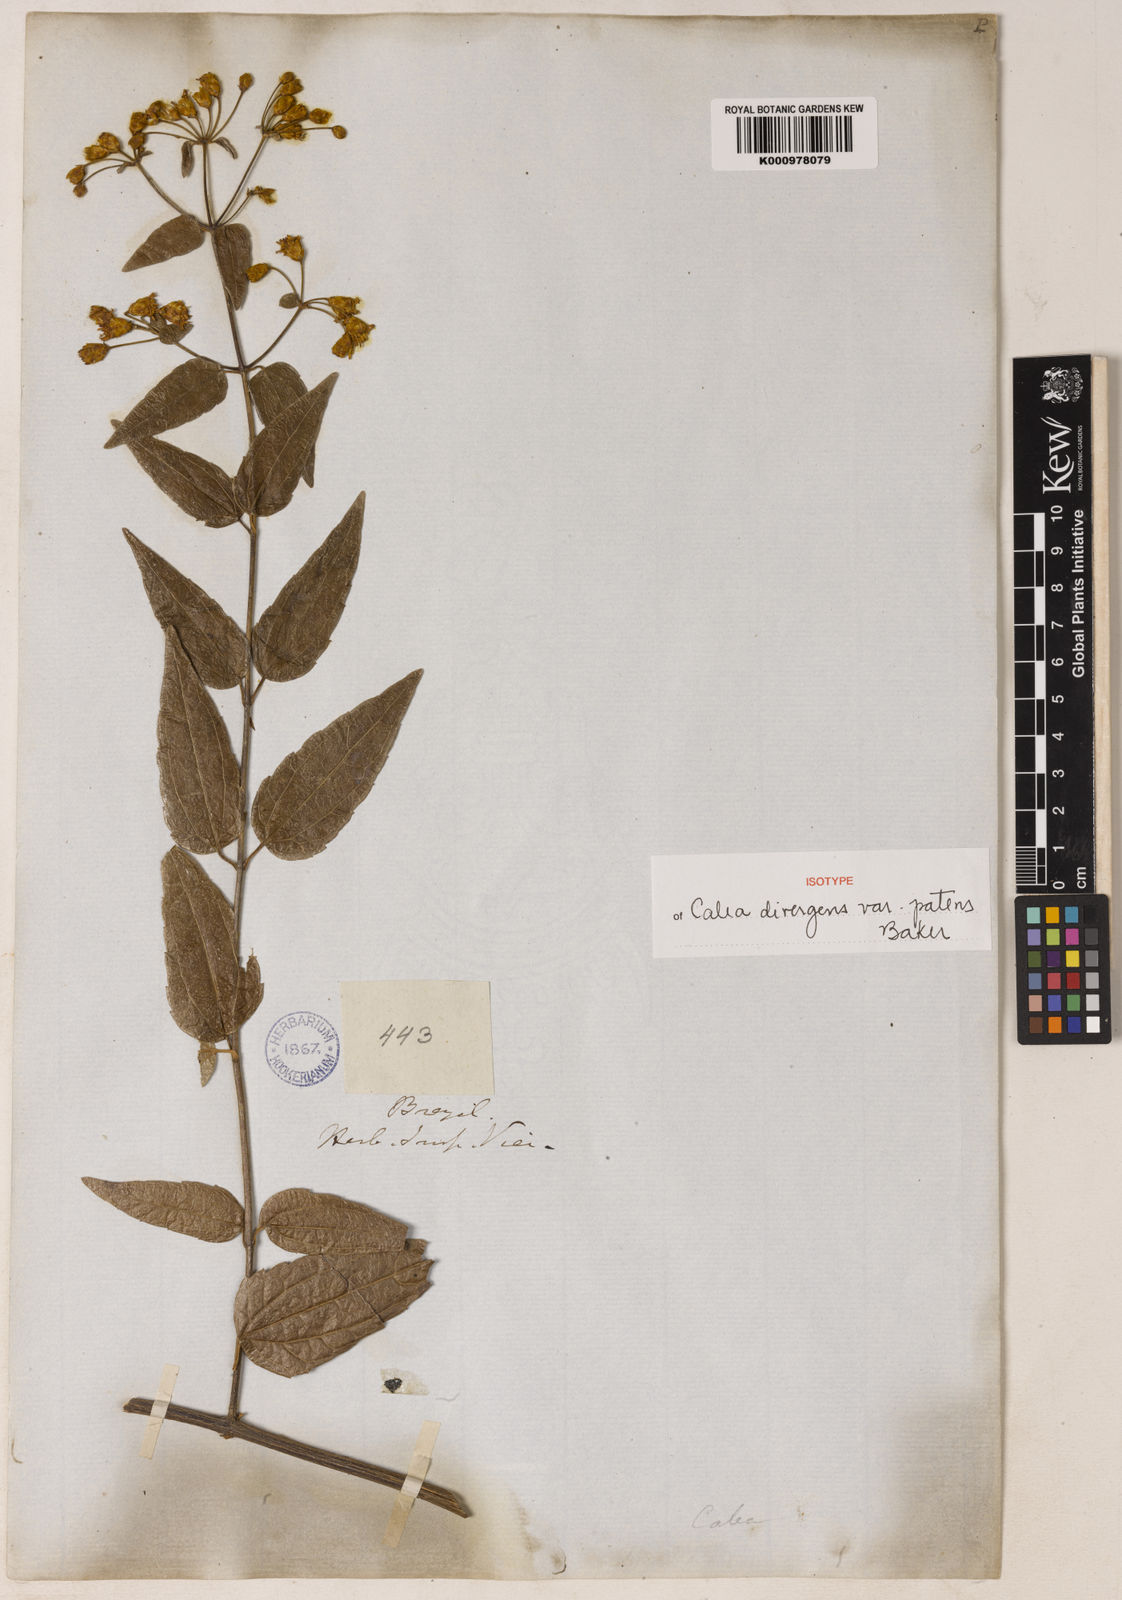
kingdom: Plantae
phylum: Tracheophyta
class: Magnoliopsida
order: Asterales
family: Asteraceae
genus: Calea
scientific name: Calea divergens
